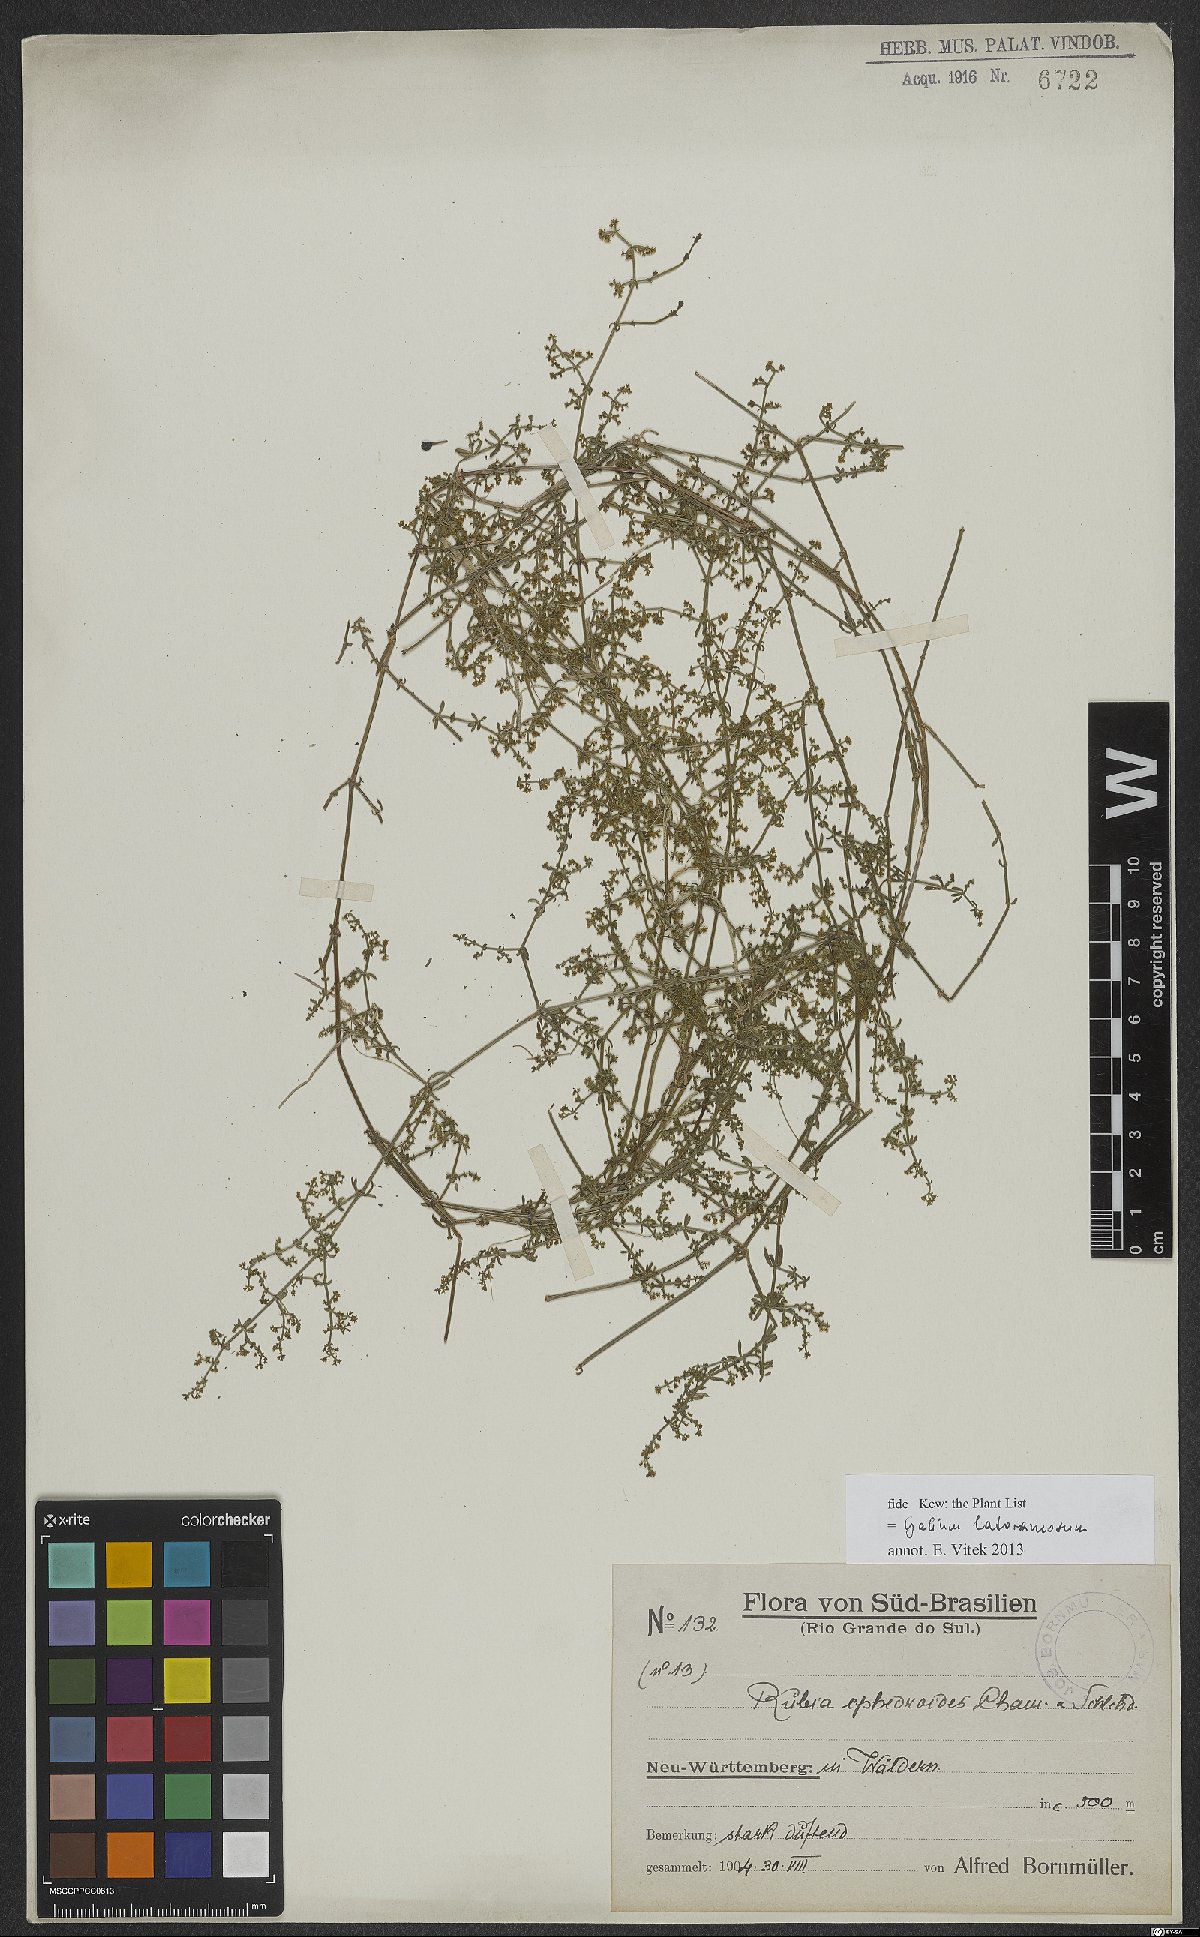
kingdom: Plantae
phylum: Tracheophyta
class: Magnoliopsida
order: Gentianales
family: Rubiaceae
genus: Galium
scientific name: Galium latoramosum
